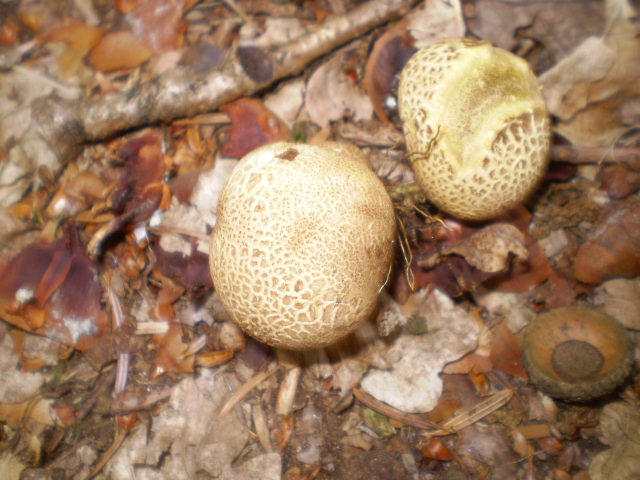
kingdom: Fungi
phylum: Basidiomycota
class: Agaricomycetes
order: Boletales
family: Sclerodermataceae
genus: Scleroderma
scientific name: Scleroderma citrinum
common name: almindelig bruskbold
